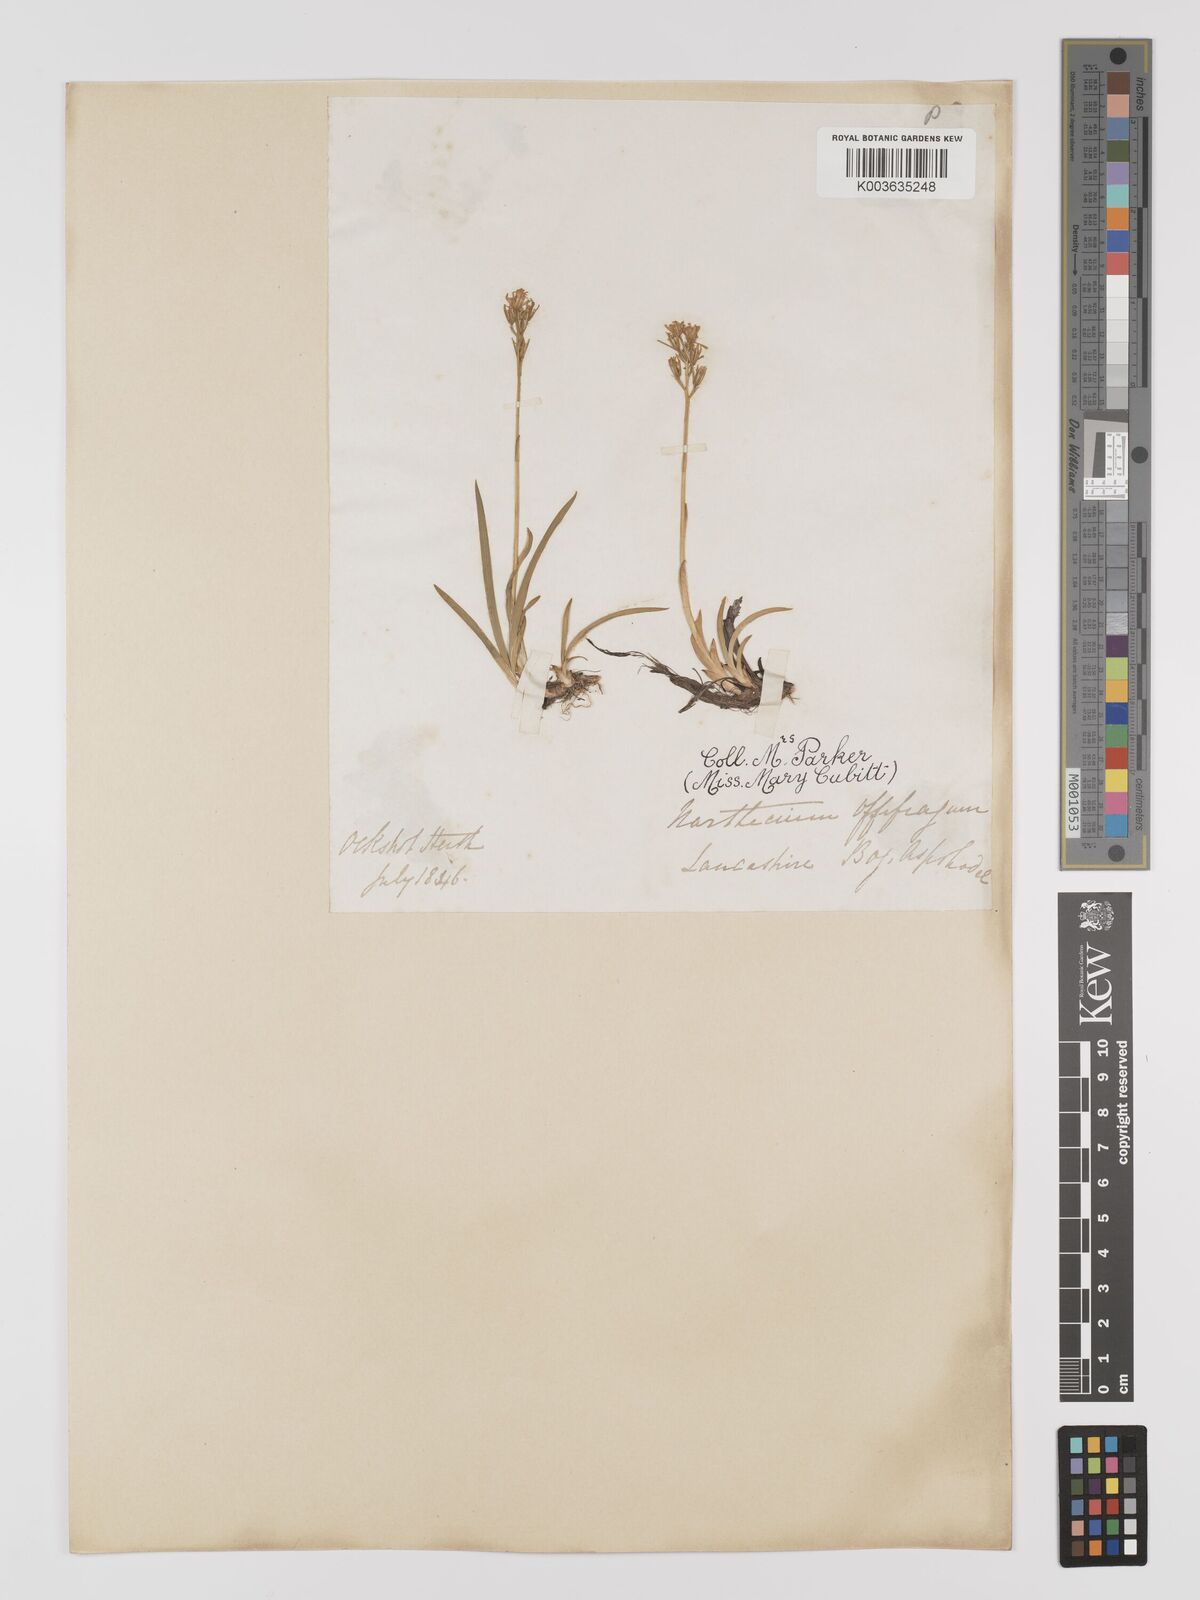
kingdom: Plantae
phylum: Tracheophyta
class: Liliopsida
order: Dioscoreales
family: Nartheciaceae
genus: Narthecium
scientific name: Narthecium
